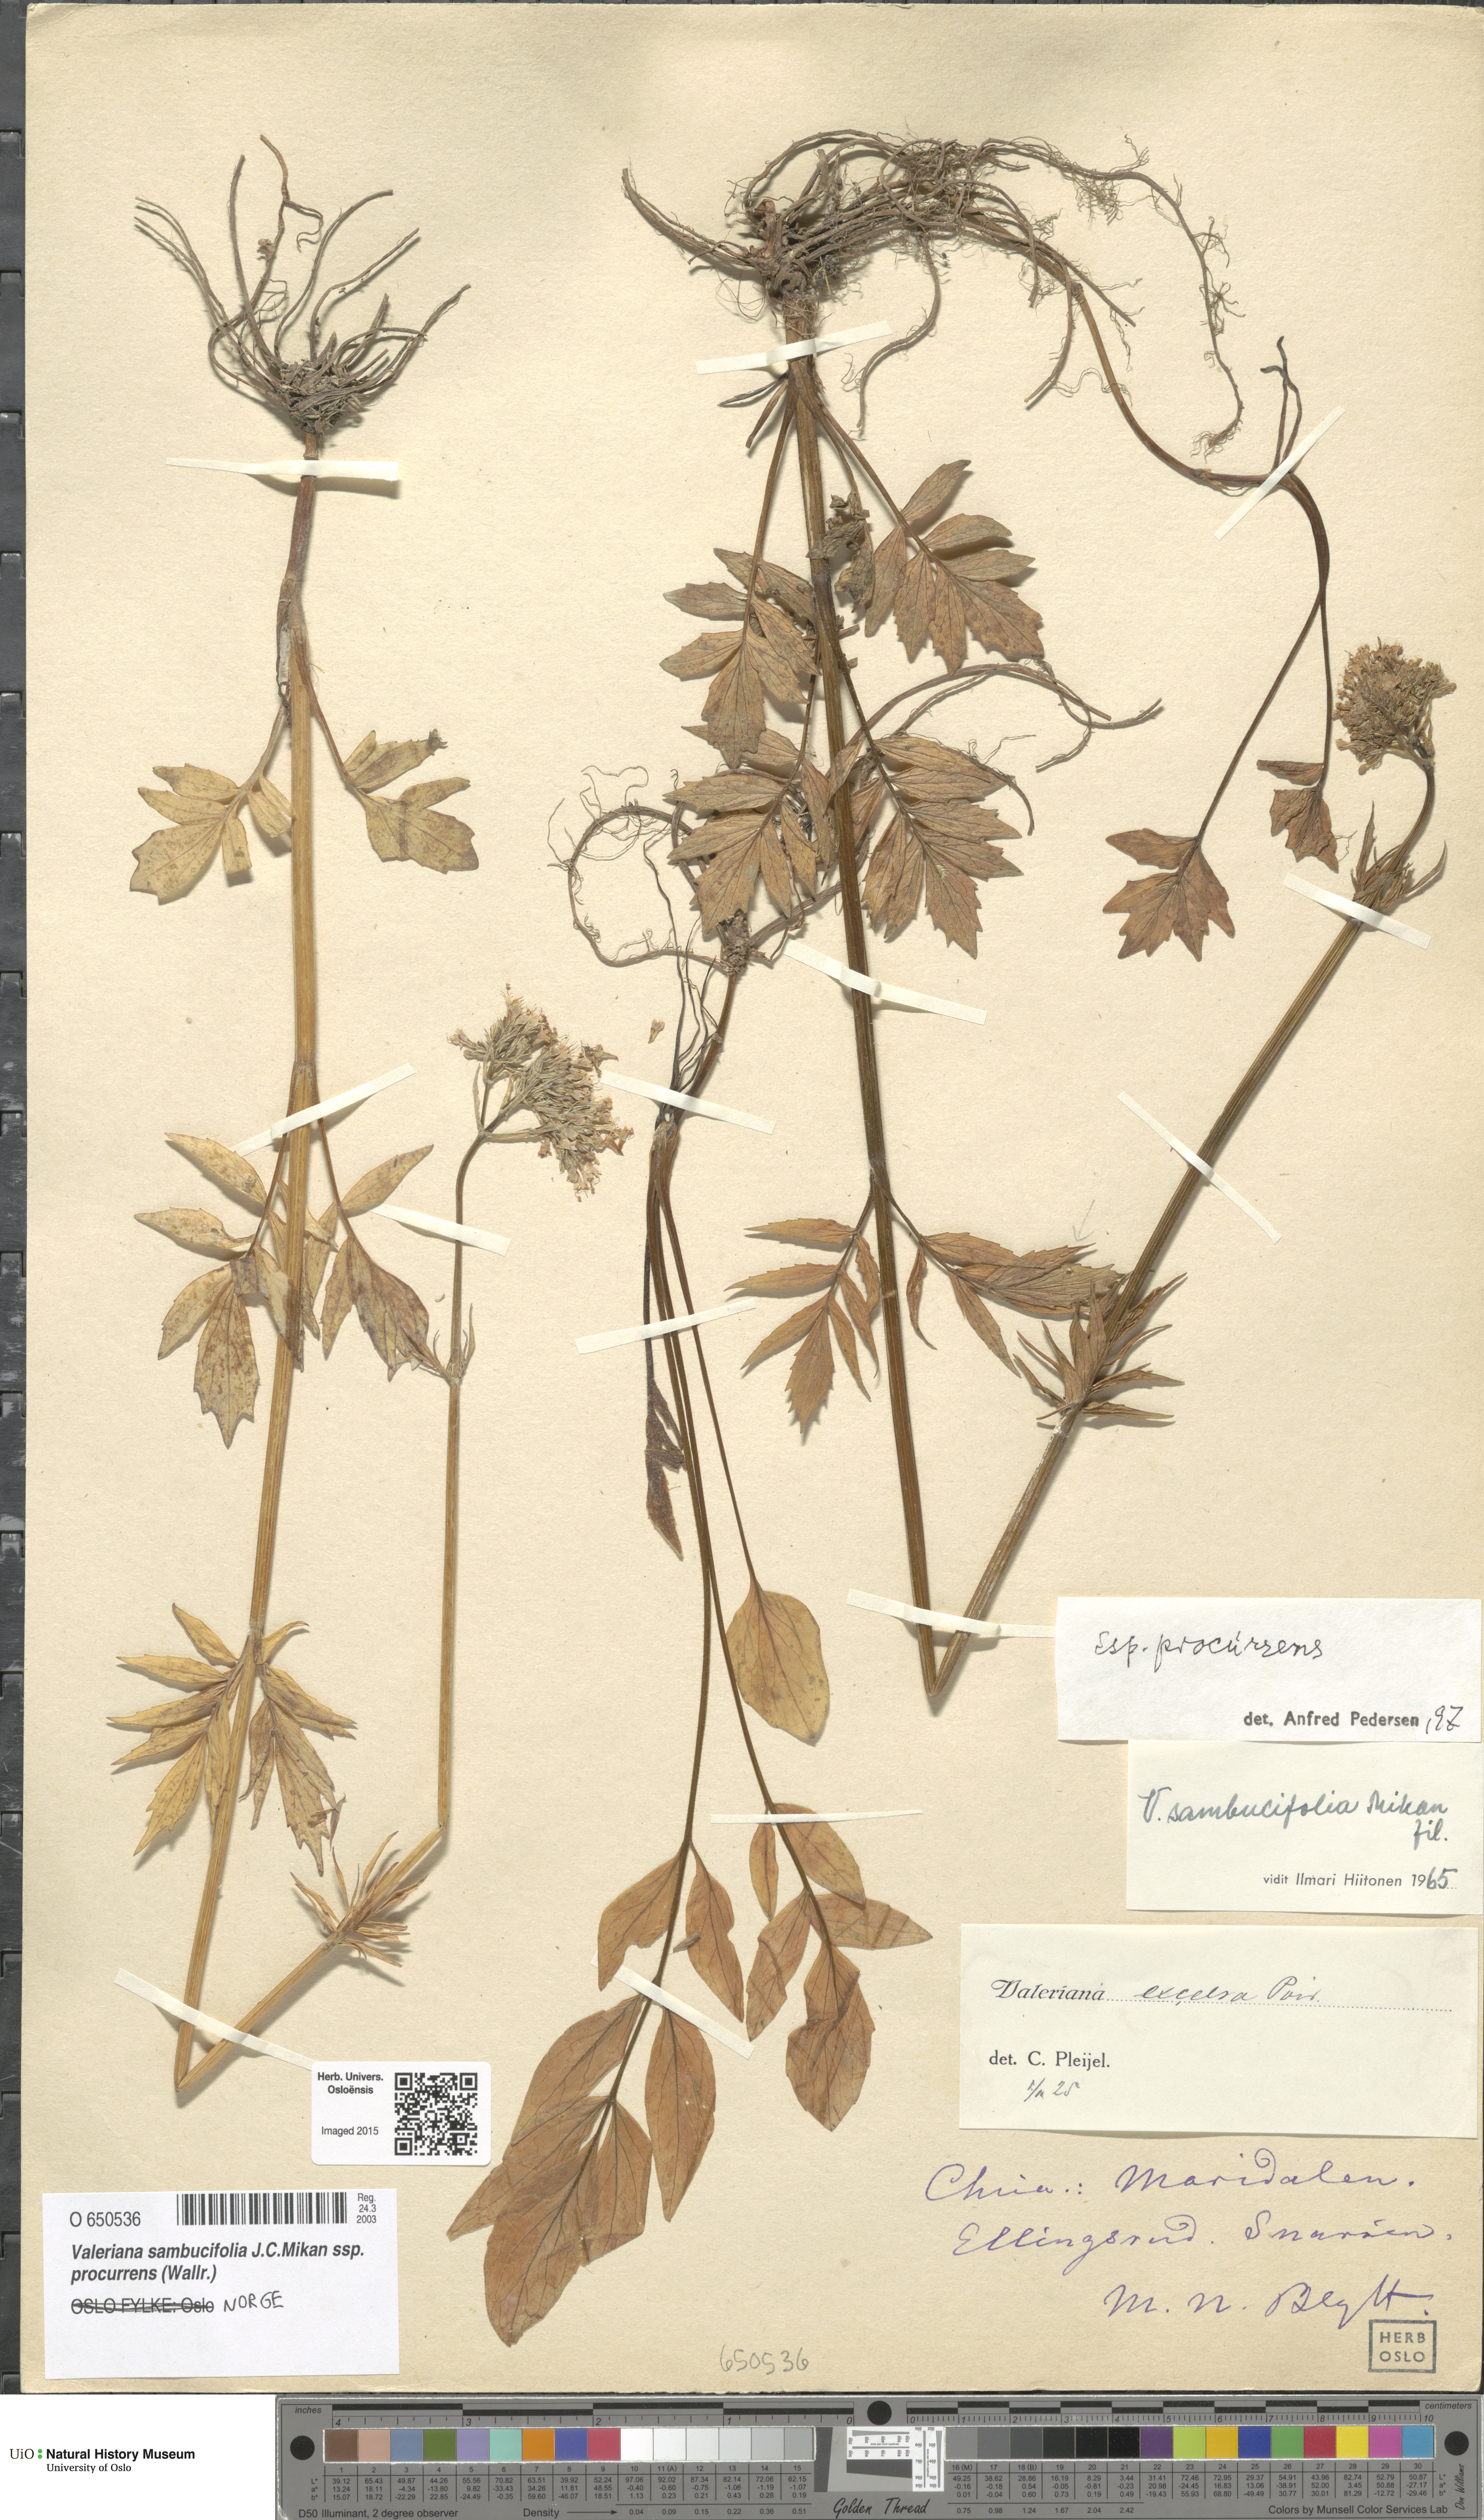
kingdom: Plantae
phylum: Tracheophyta
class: Magnoliopsida
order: Dipsacales
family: Caprifoliaceae
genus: Valeriana
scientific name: Valeriana excelsa
